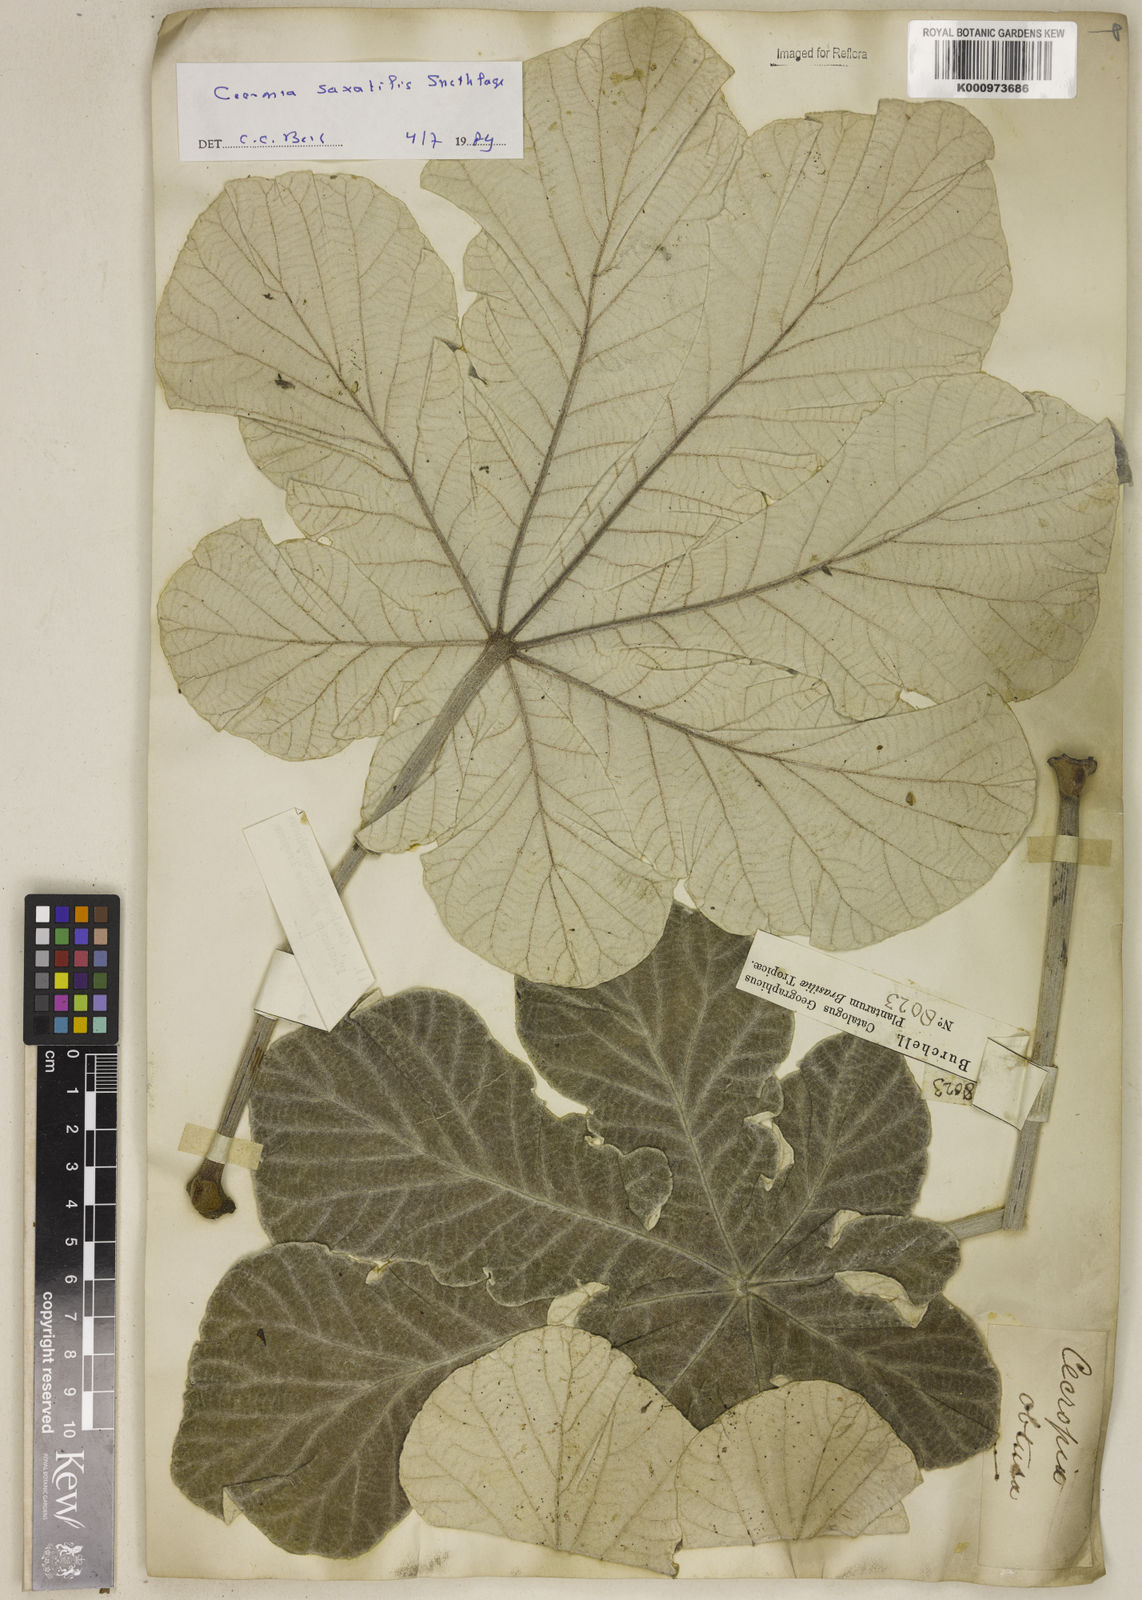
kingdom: Plantae
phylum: Tracheophyta
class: Magnoliopsida
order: Rosales
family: Urticaceae
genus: Cecropia
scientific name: Cecropia saxatilis
